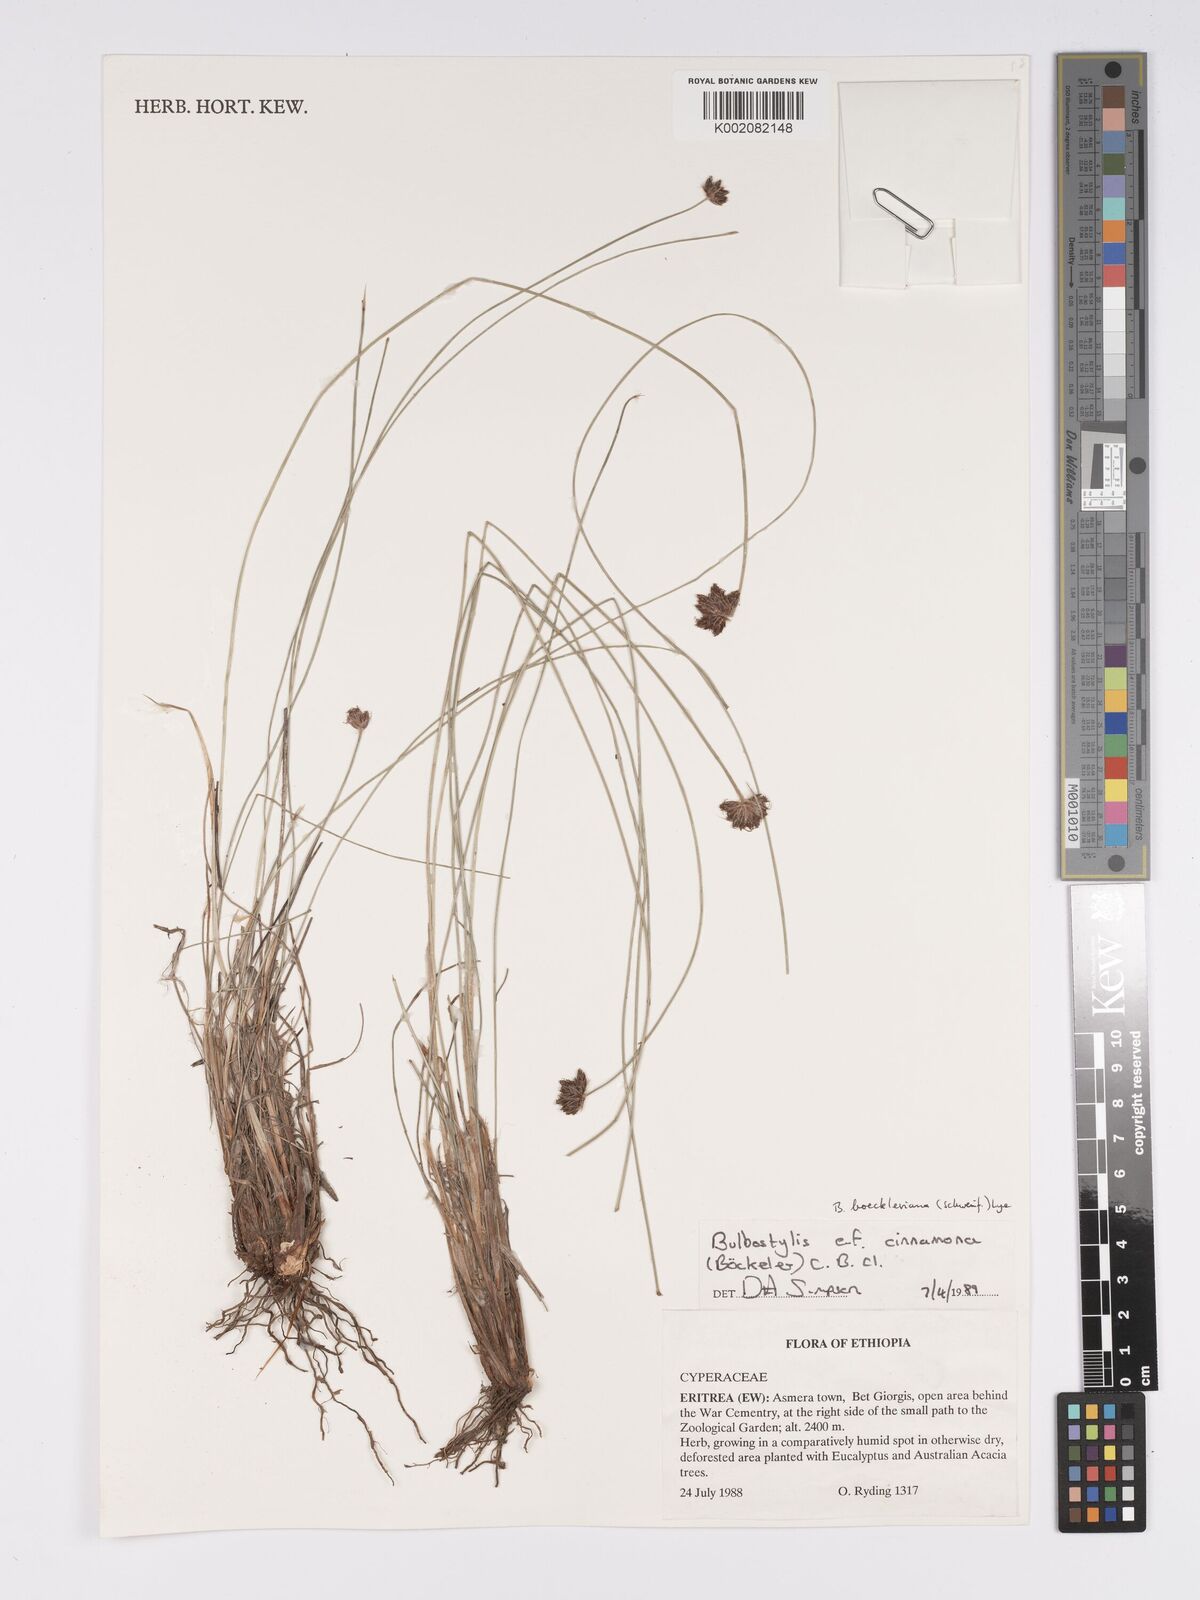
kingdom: Plantae
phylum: Tracheophyta
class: Liliopsida
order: Poales
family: Cyperaceae
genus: Bulbostylis
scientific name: Bulbostylis boeckeleriana
